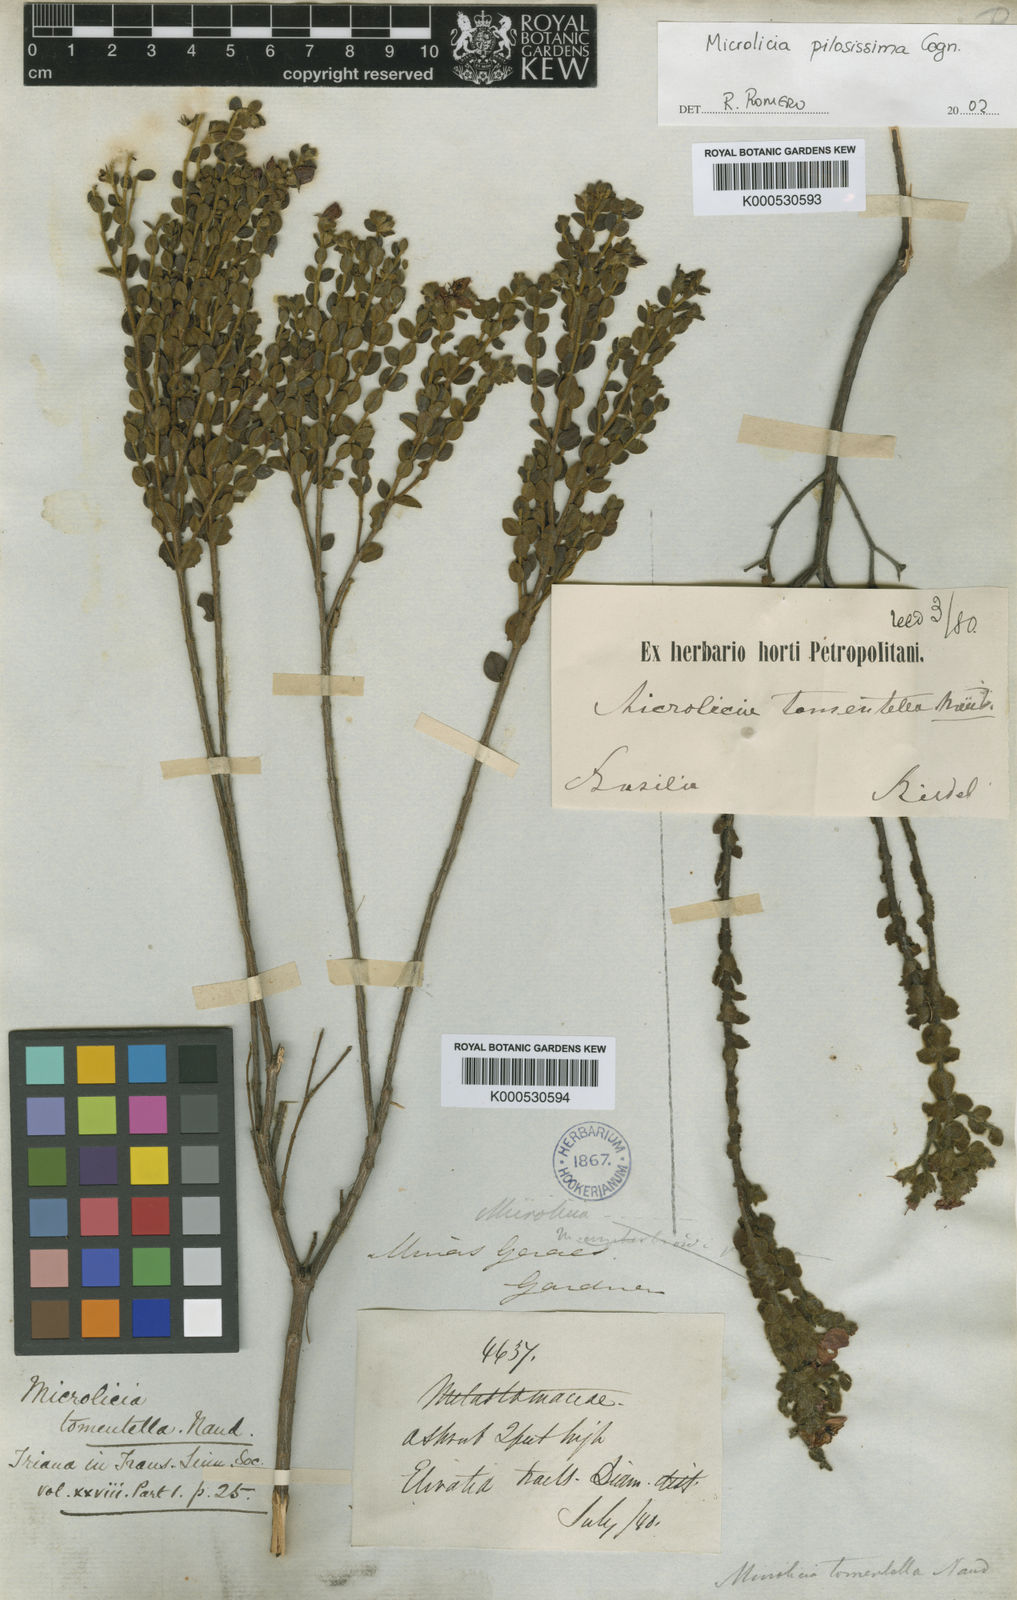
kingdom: Plantae
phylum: Tracheophyta
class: Magnoliopsida
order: Myrtales
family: Melastomataceae
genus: Microlicia
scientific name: Microlicia tomentella
